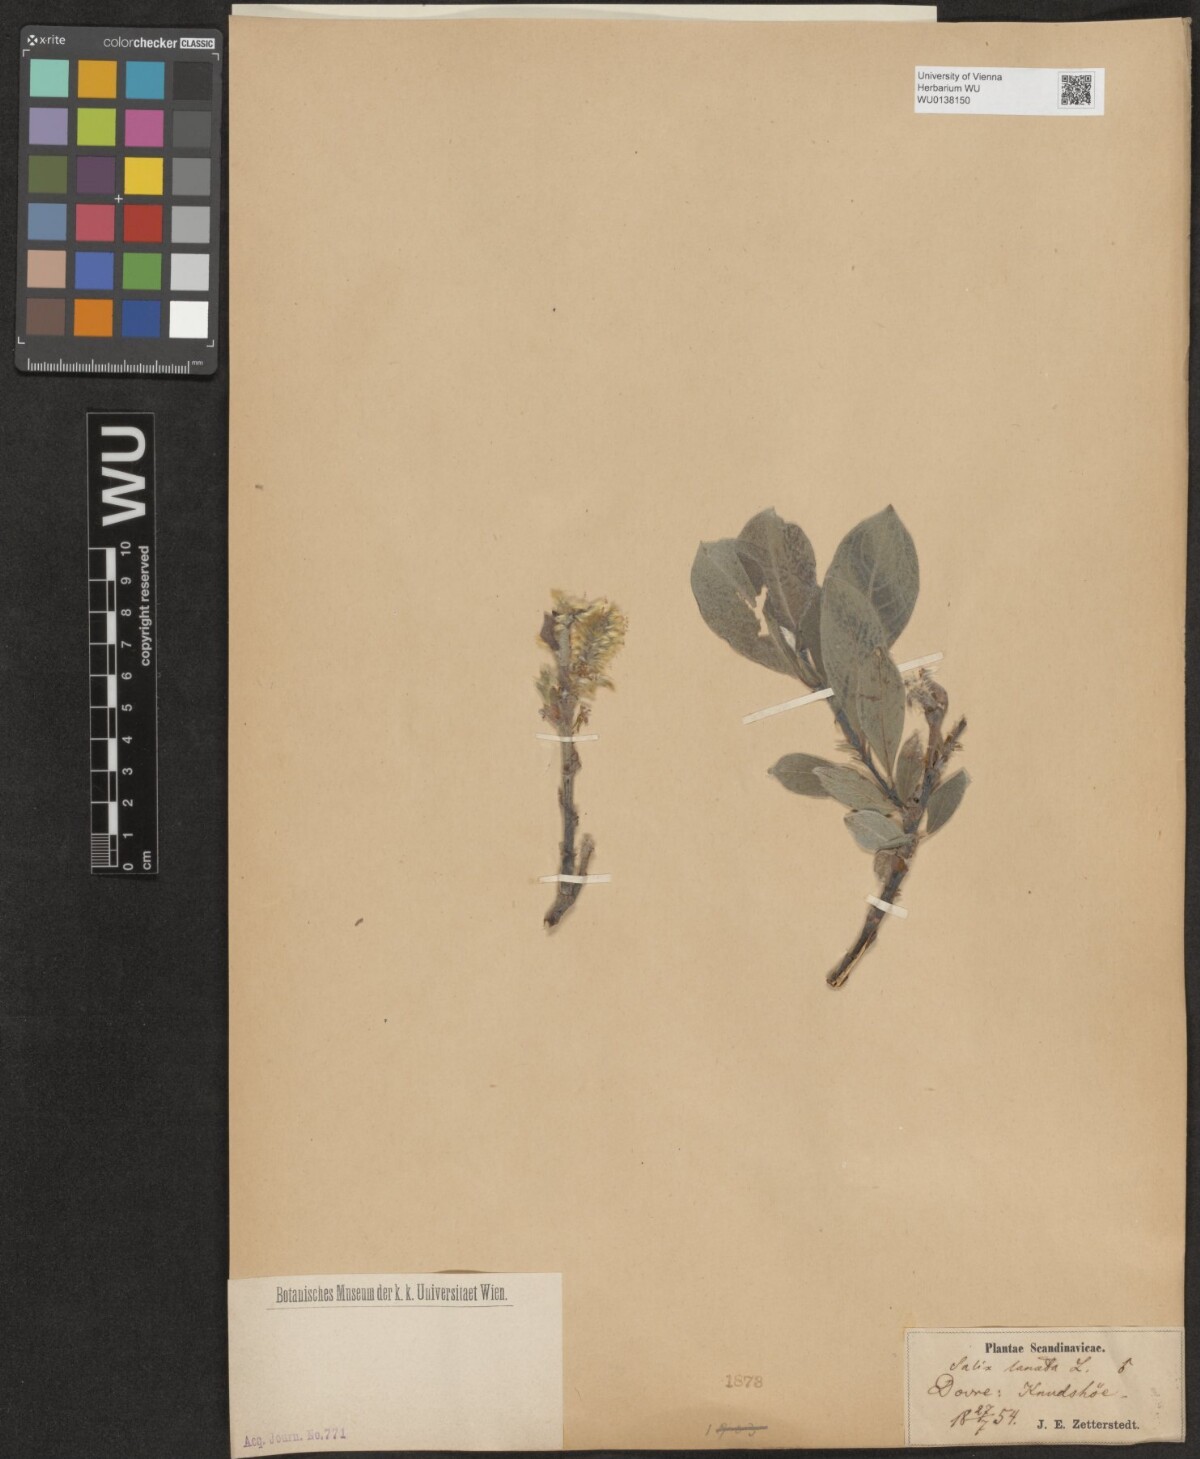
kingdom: Plantae
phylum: Tracheophyta
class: Magnoliopsida
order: Malpighiales
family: Salicaceae
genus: Salix
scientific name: Salix lanata
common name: Woolly willow
